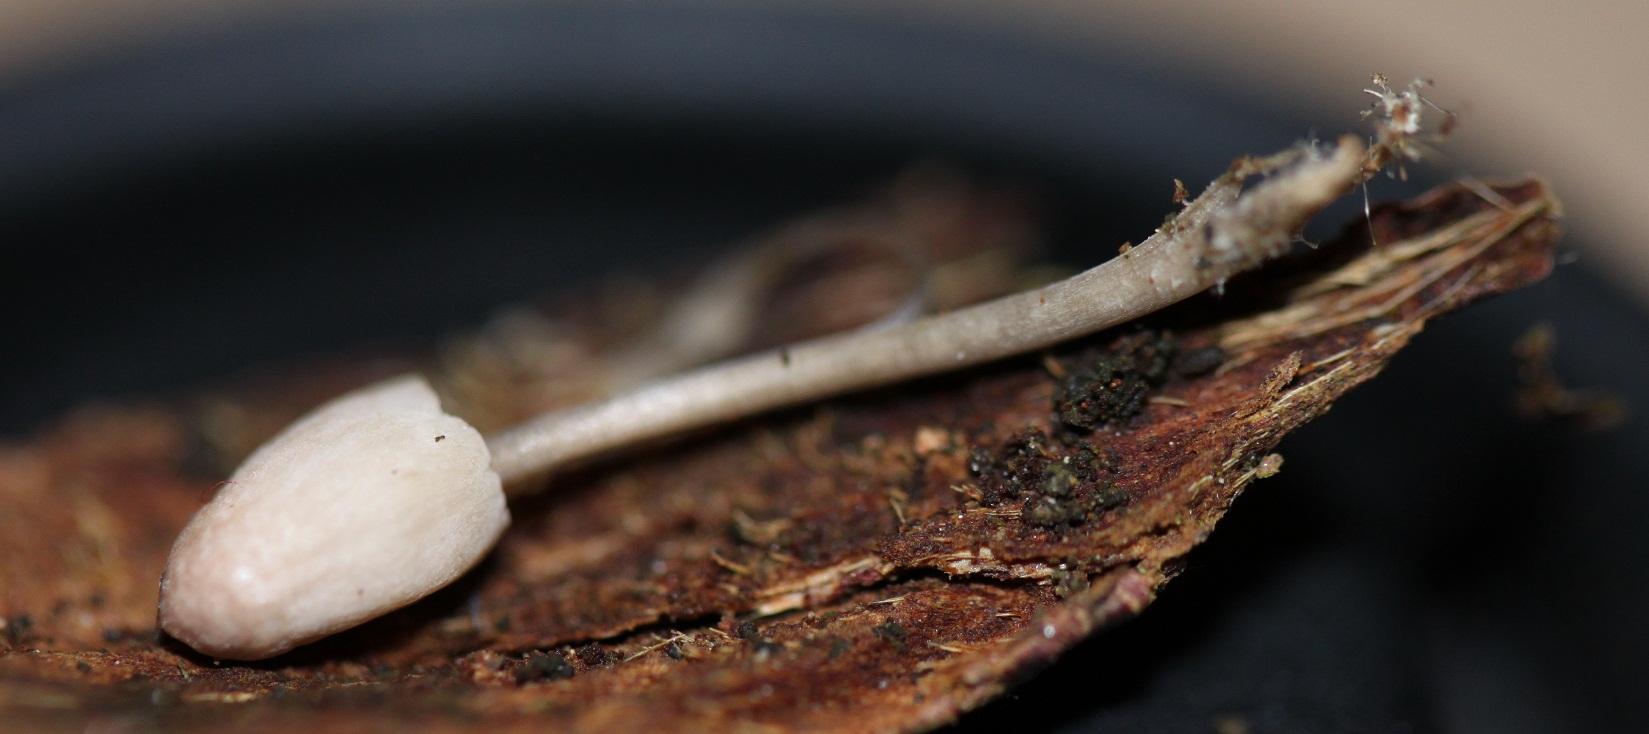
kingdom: Fungi
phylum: Basidiomycota
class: Agaricomycetes
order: Agaricales
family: Mycenaceae
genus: Mycena
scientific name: Mycena metata
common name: rødlig huesvamp
